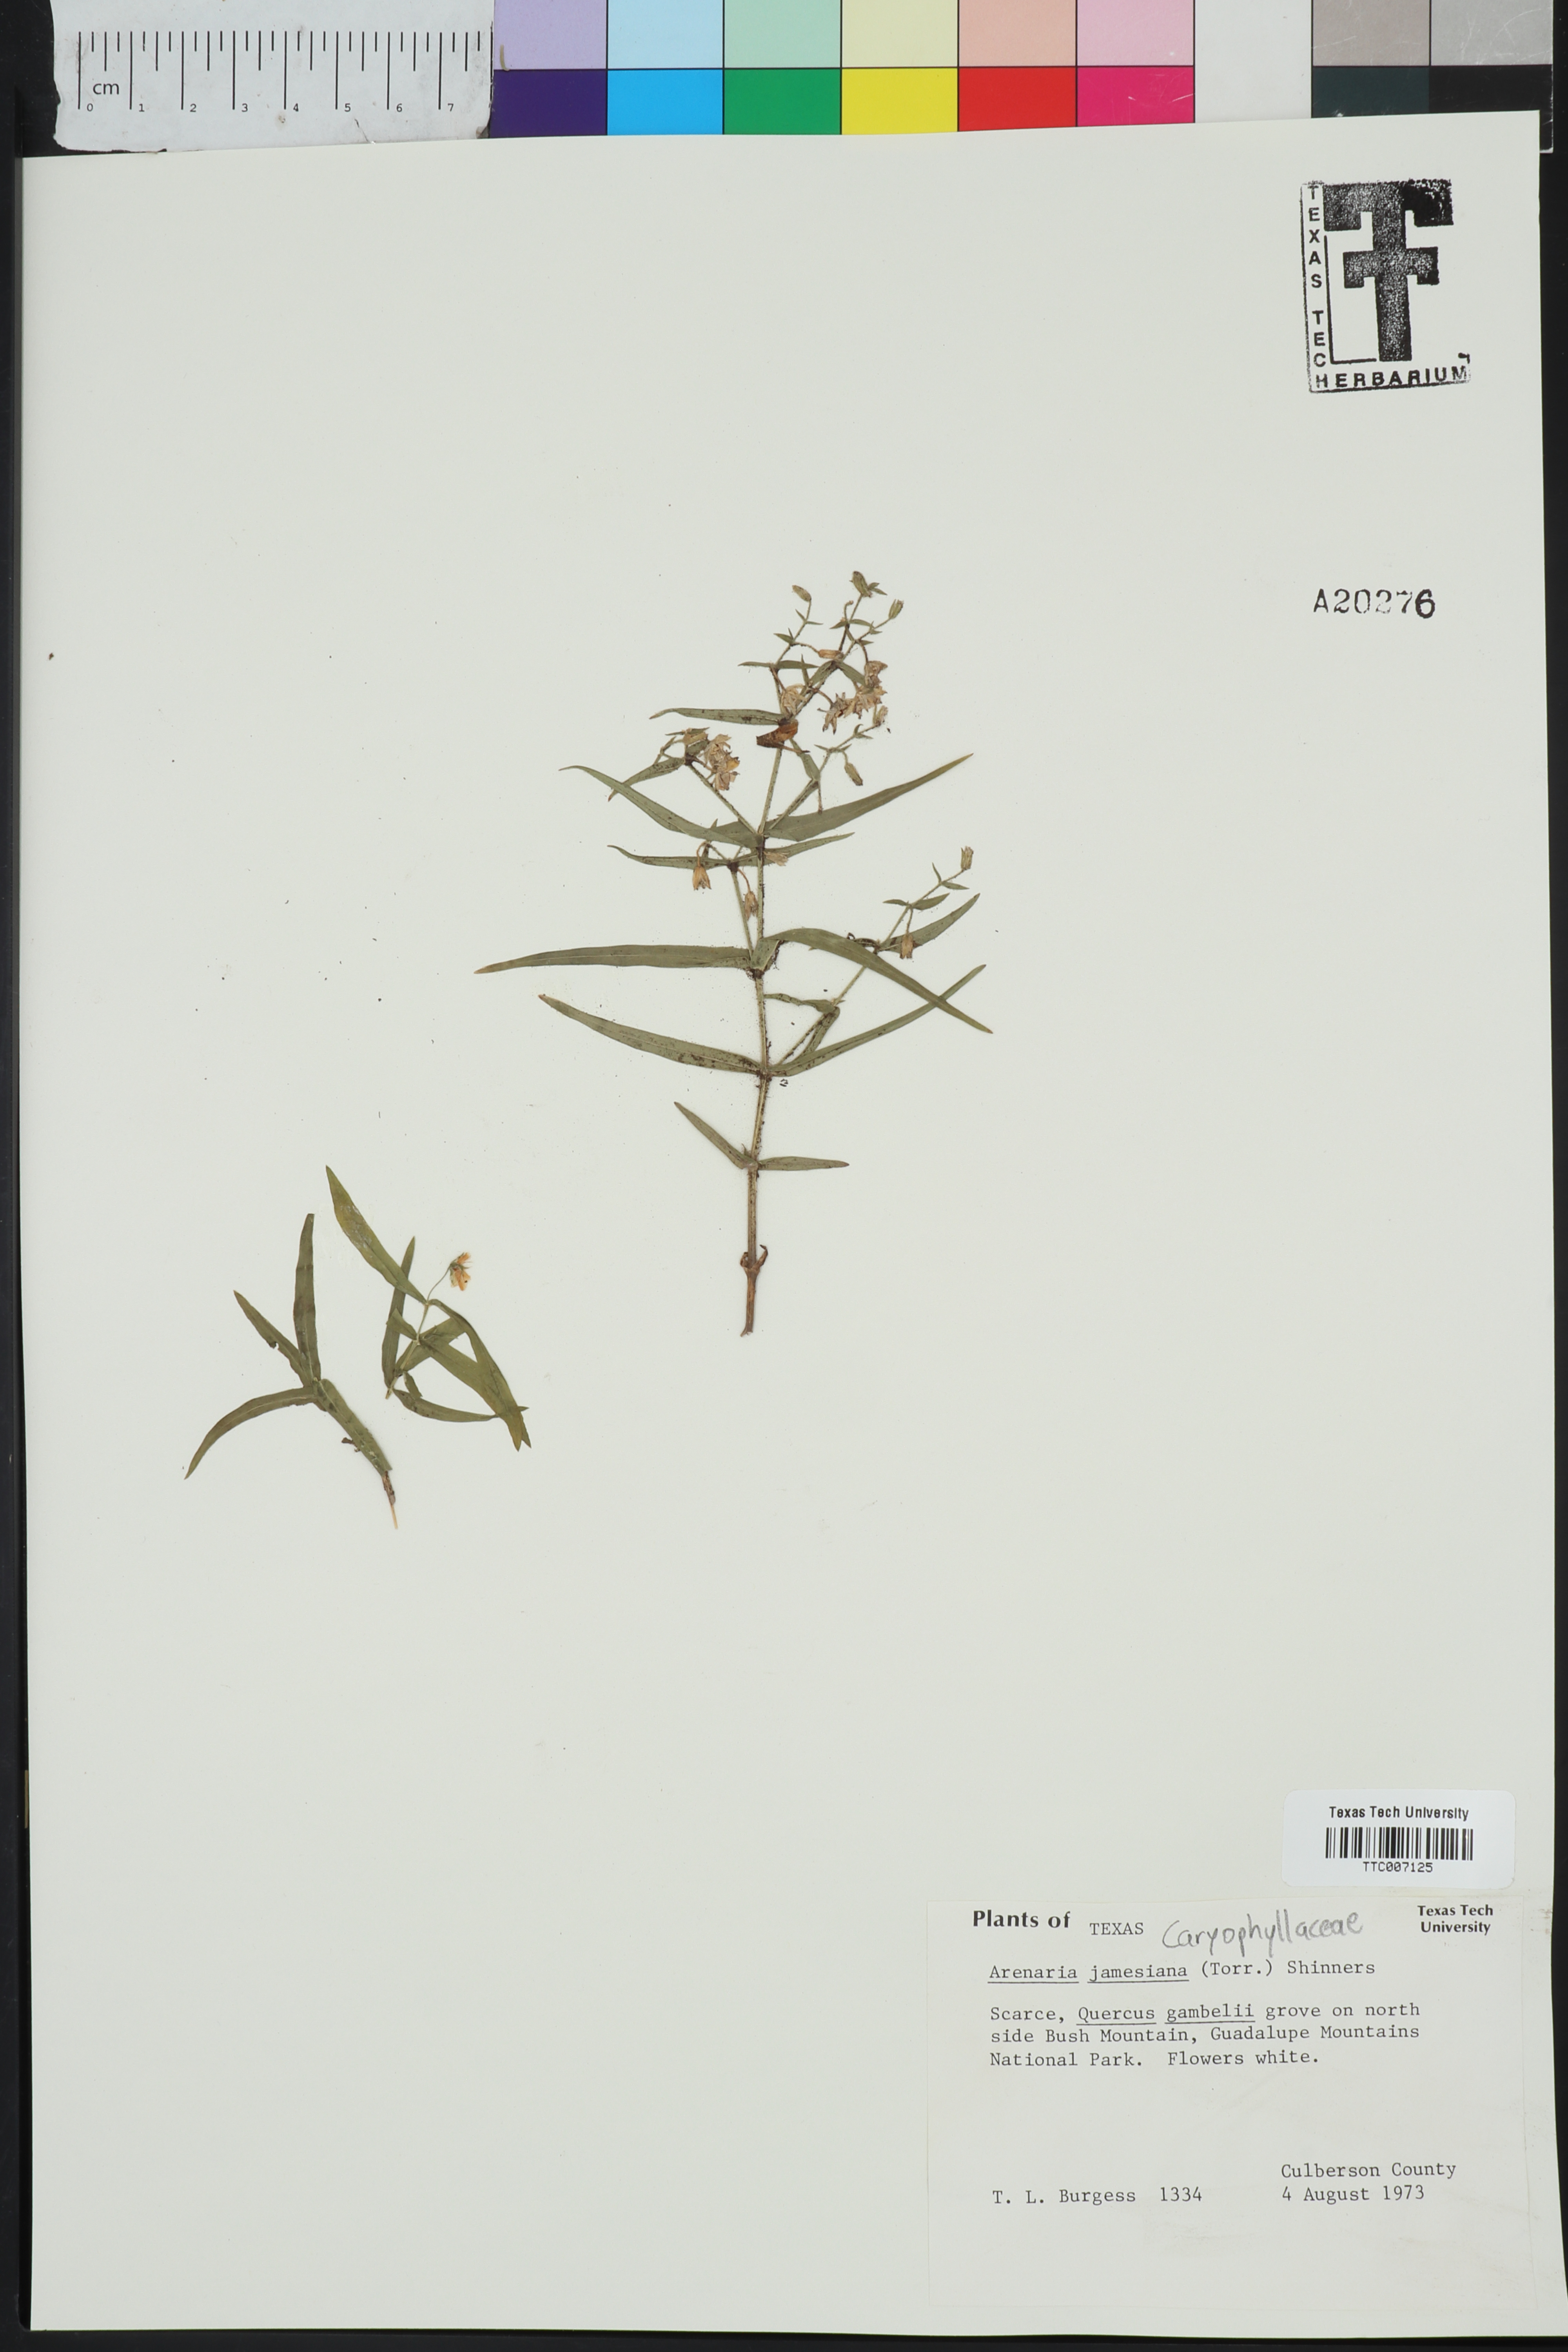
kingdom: Plantae
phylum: Tracheophyta
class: Magnoliopsida
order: Caryophyllales
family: Caryophyllaceae
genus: Schizotechium
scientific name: Schizotechium jamesianum
